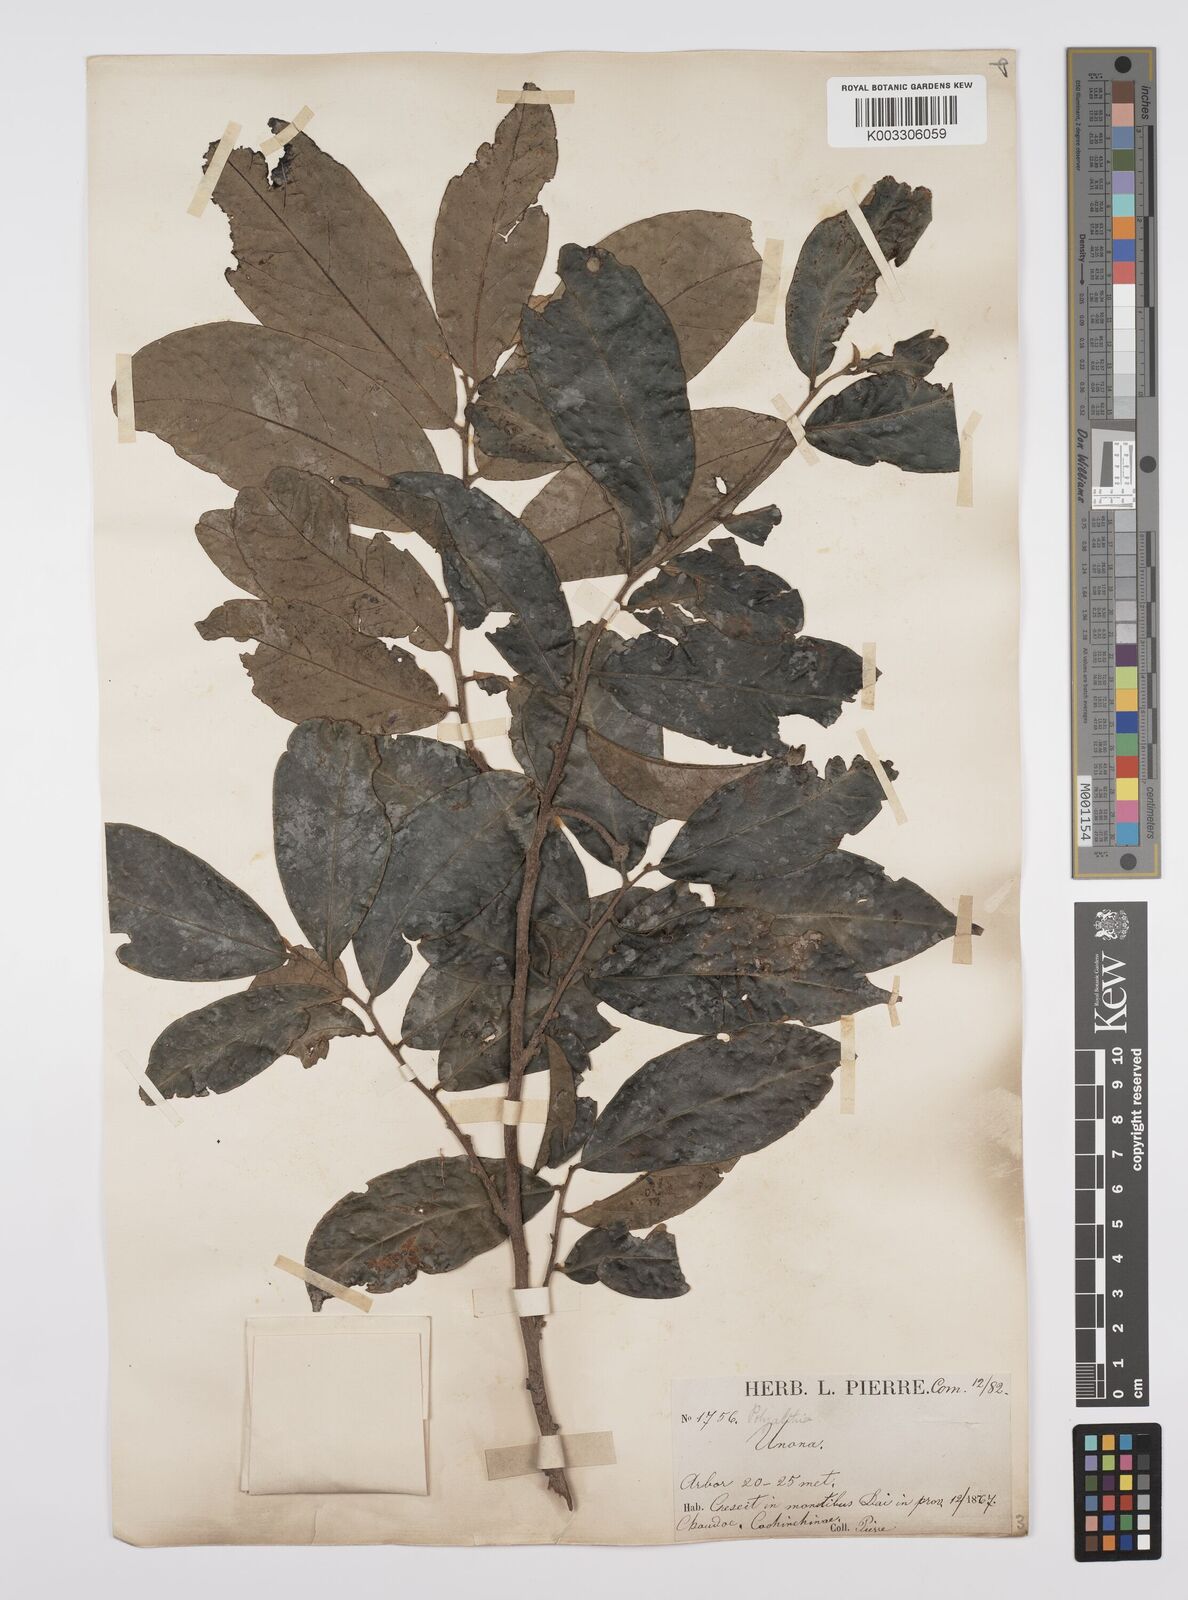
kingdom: Plantae
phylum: Tracheophyta
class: Magnoliopsida
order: Magnoliales
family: Annonaceae
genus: Hubera
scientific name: Hubera cerasoides
